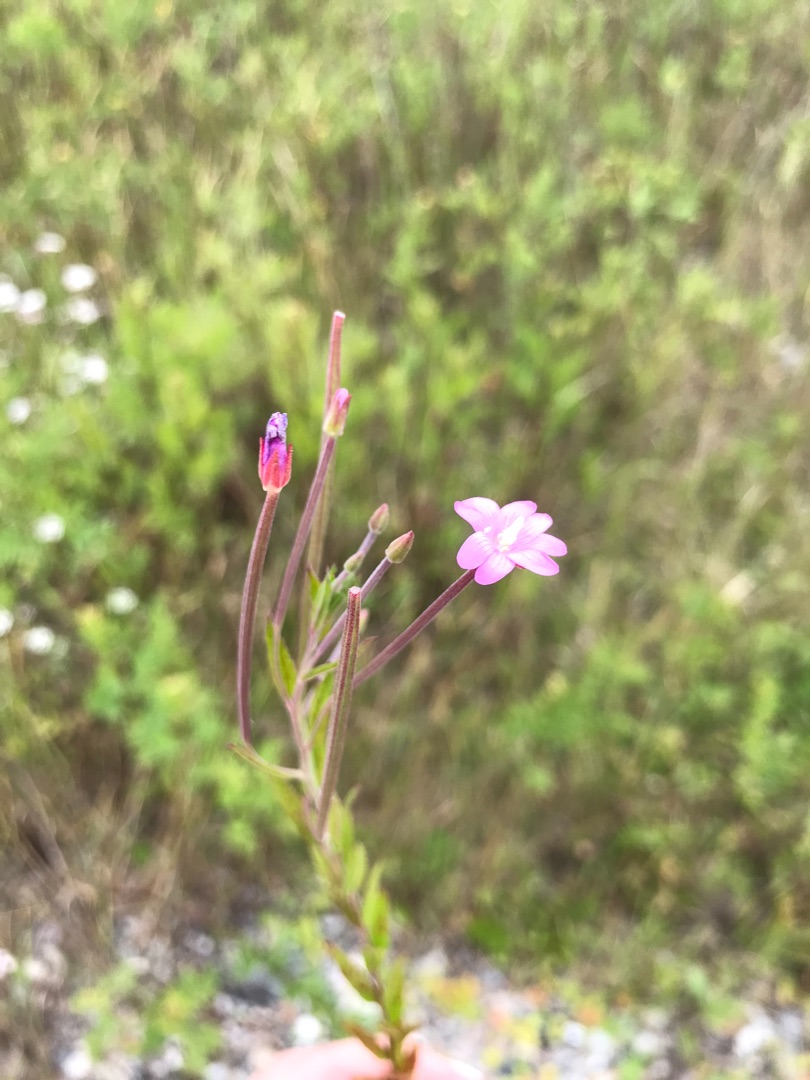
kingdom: Plantae
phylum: Tracheophyta
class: Magnoliopsida
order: Myrtales
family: Onagraceae
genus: Epilobium
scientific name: Epilobium
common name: Dueurtslægten
